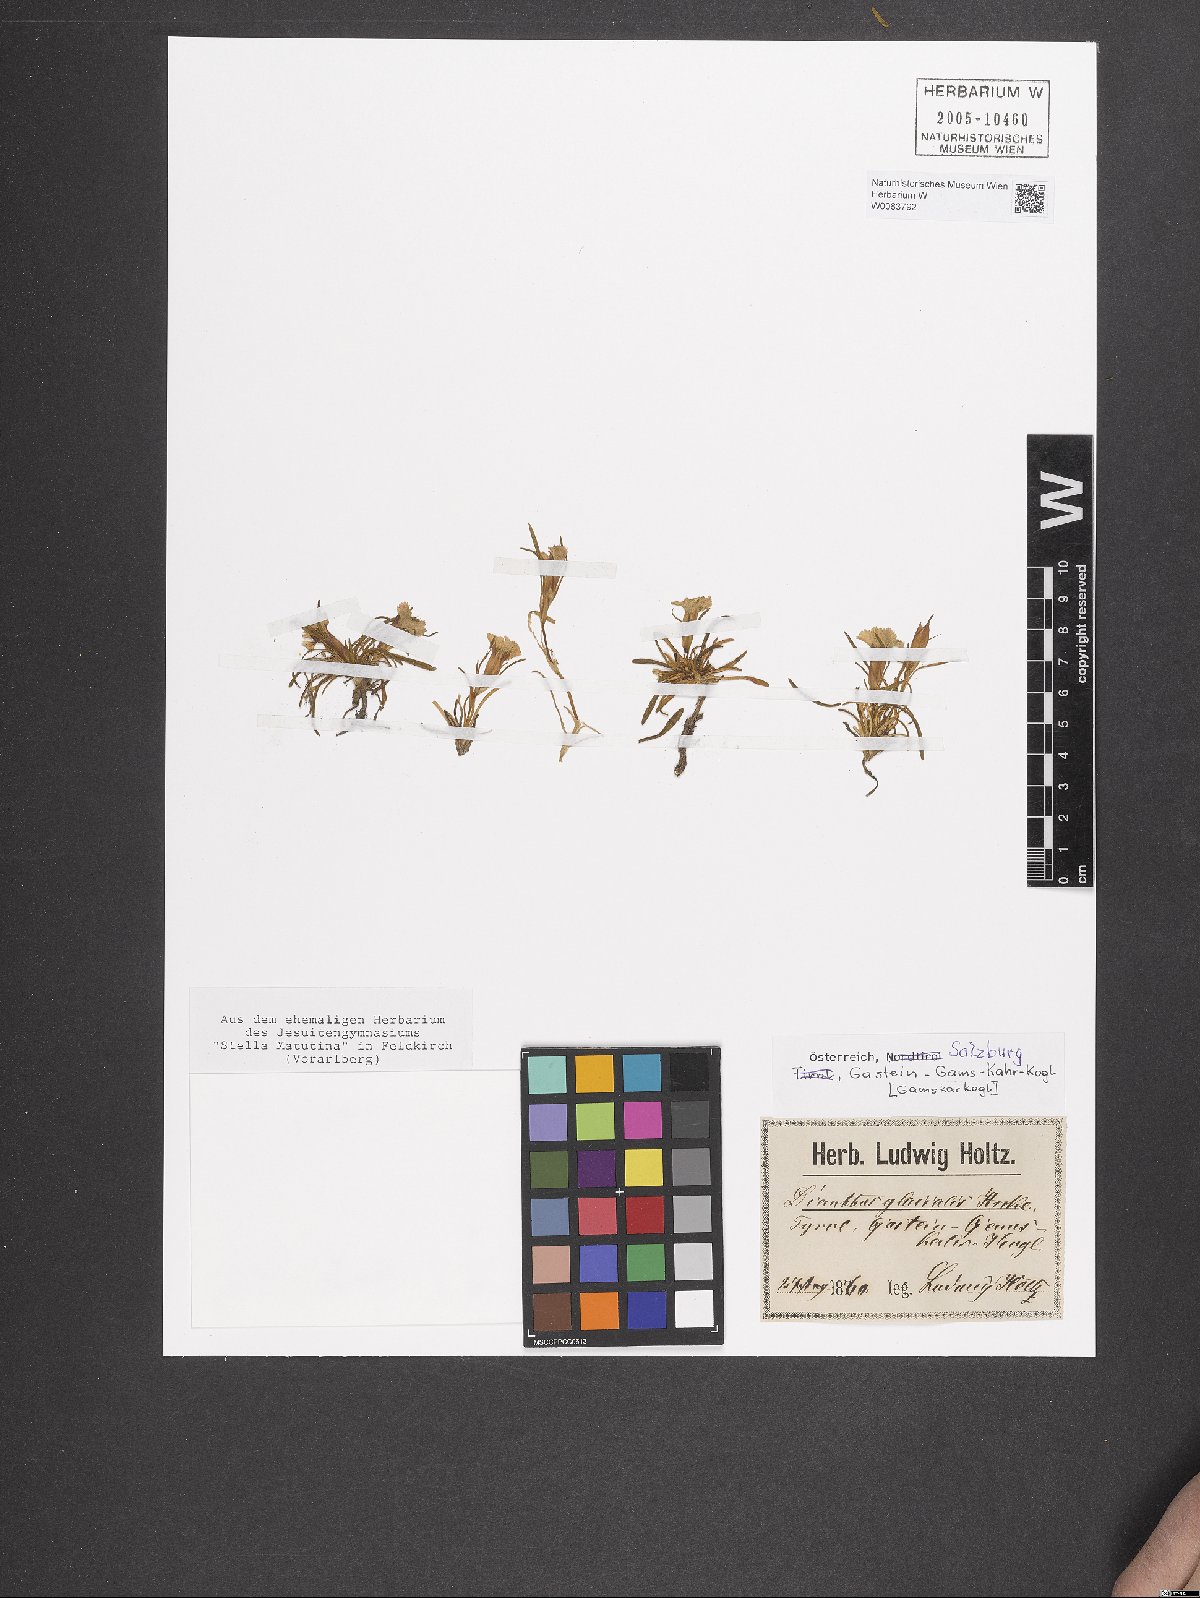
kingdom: Plantae
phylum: Tracheophyta
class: Magnoliopsida
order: Caryophyllales
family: Caryophyllaceae
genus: Dianthus
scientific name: Dianthus glacialis
